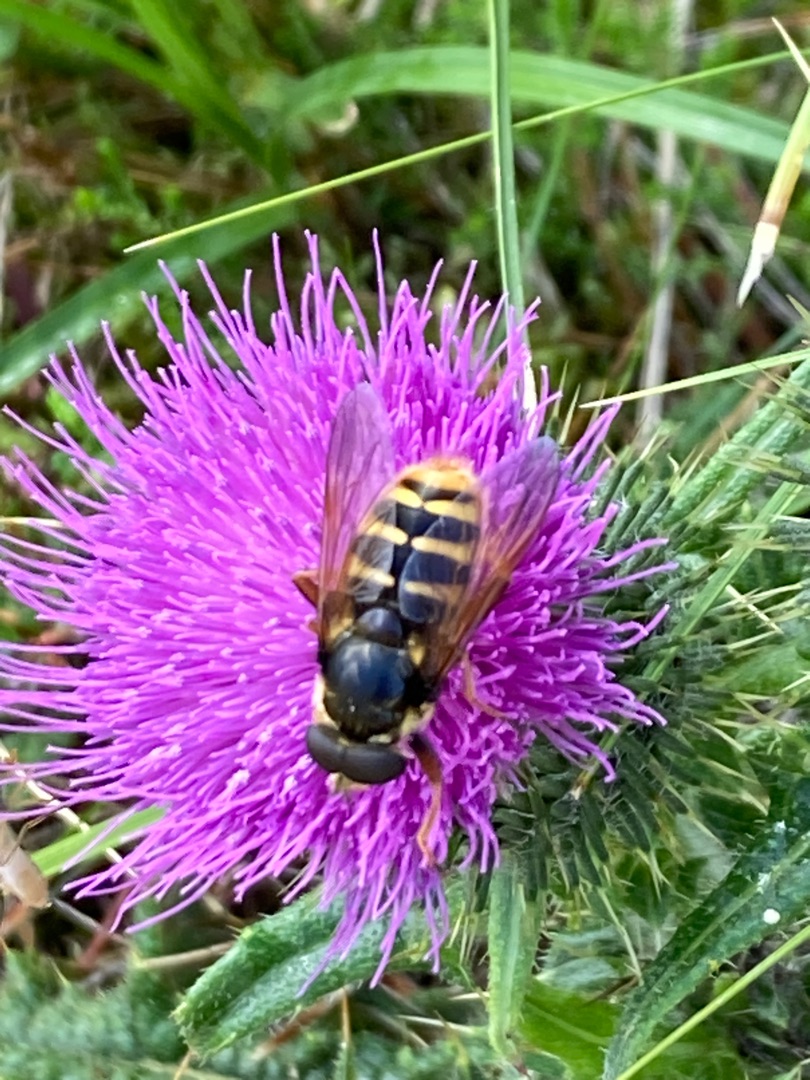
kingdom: Animalia
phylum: Arthropoda
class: Insecta
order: Diptera
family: Syrphidae
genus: Sericomyia
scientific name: Sericomyia silentis
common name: Tørve-silkesvirreflue
